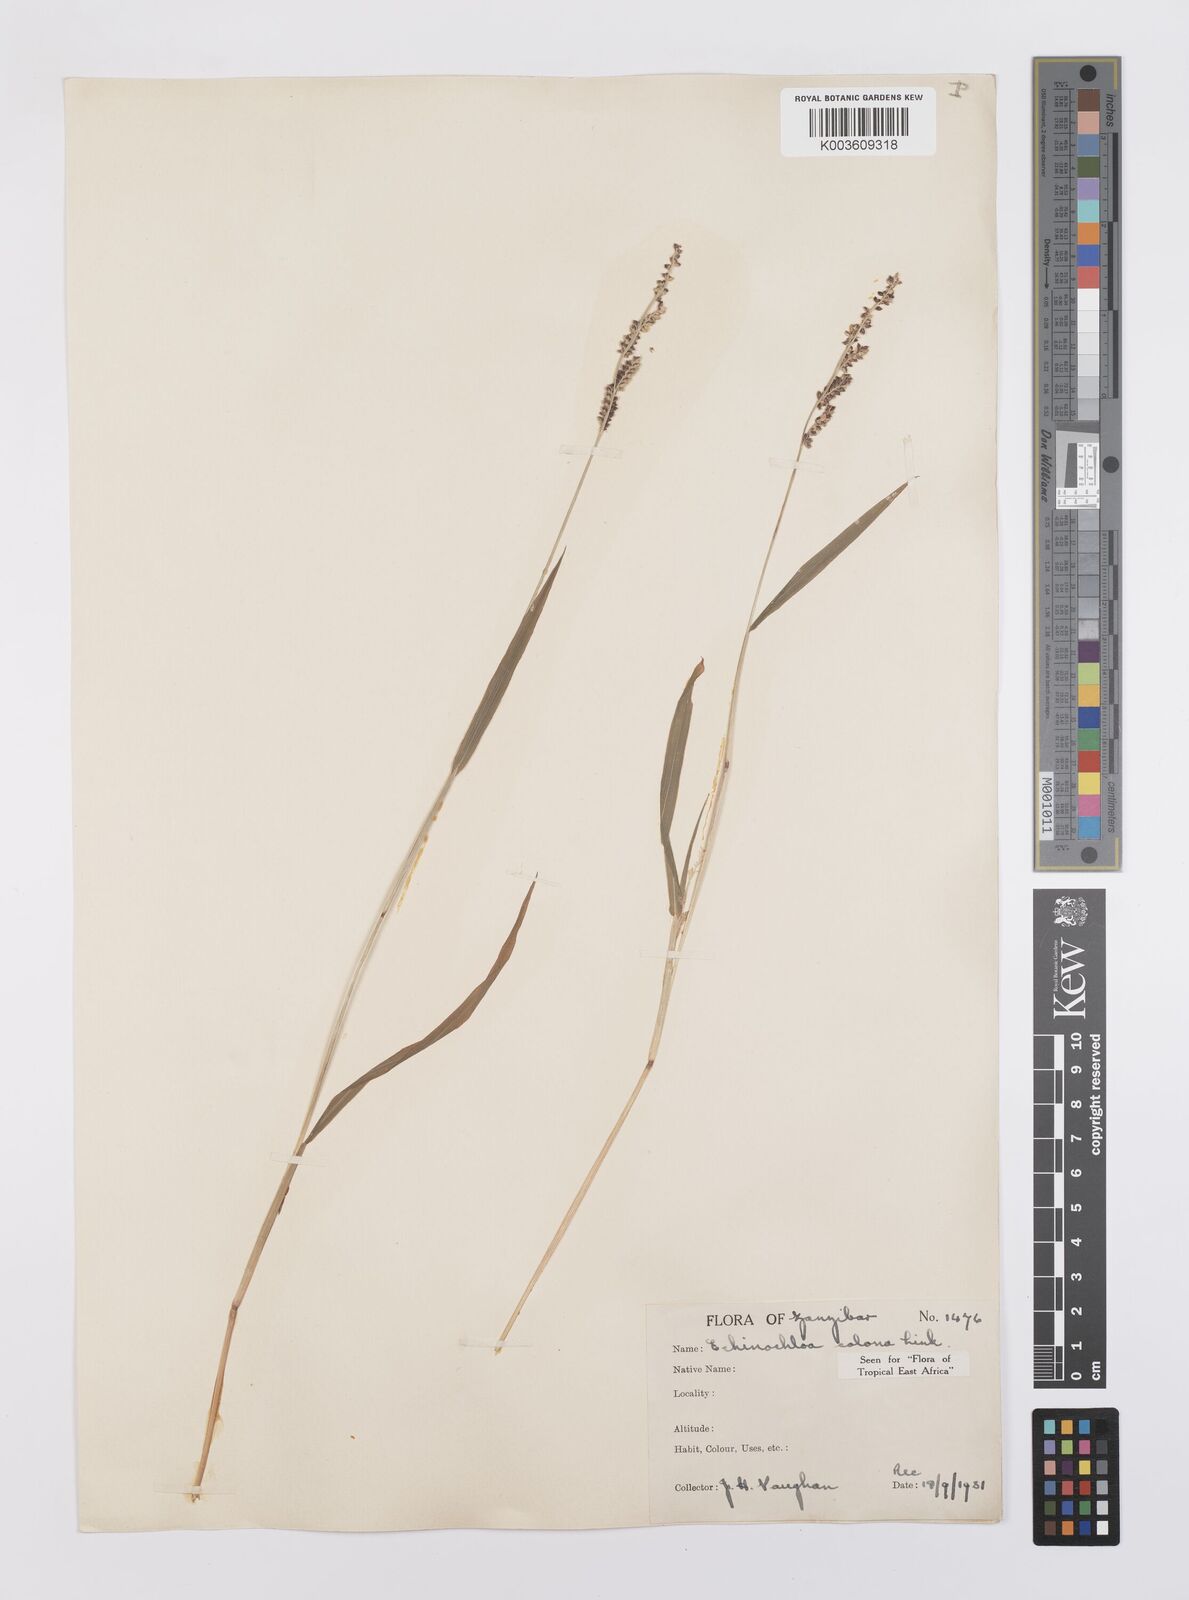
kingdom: Plantae
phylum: Tracheophyta
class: Liliopsida
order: Poales
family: Poaceae
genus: Echinochloa
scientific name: Echinochloa colonum
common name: Jungle rice
